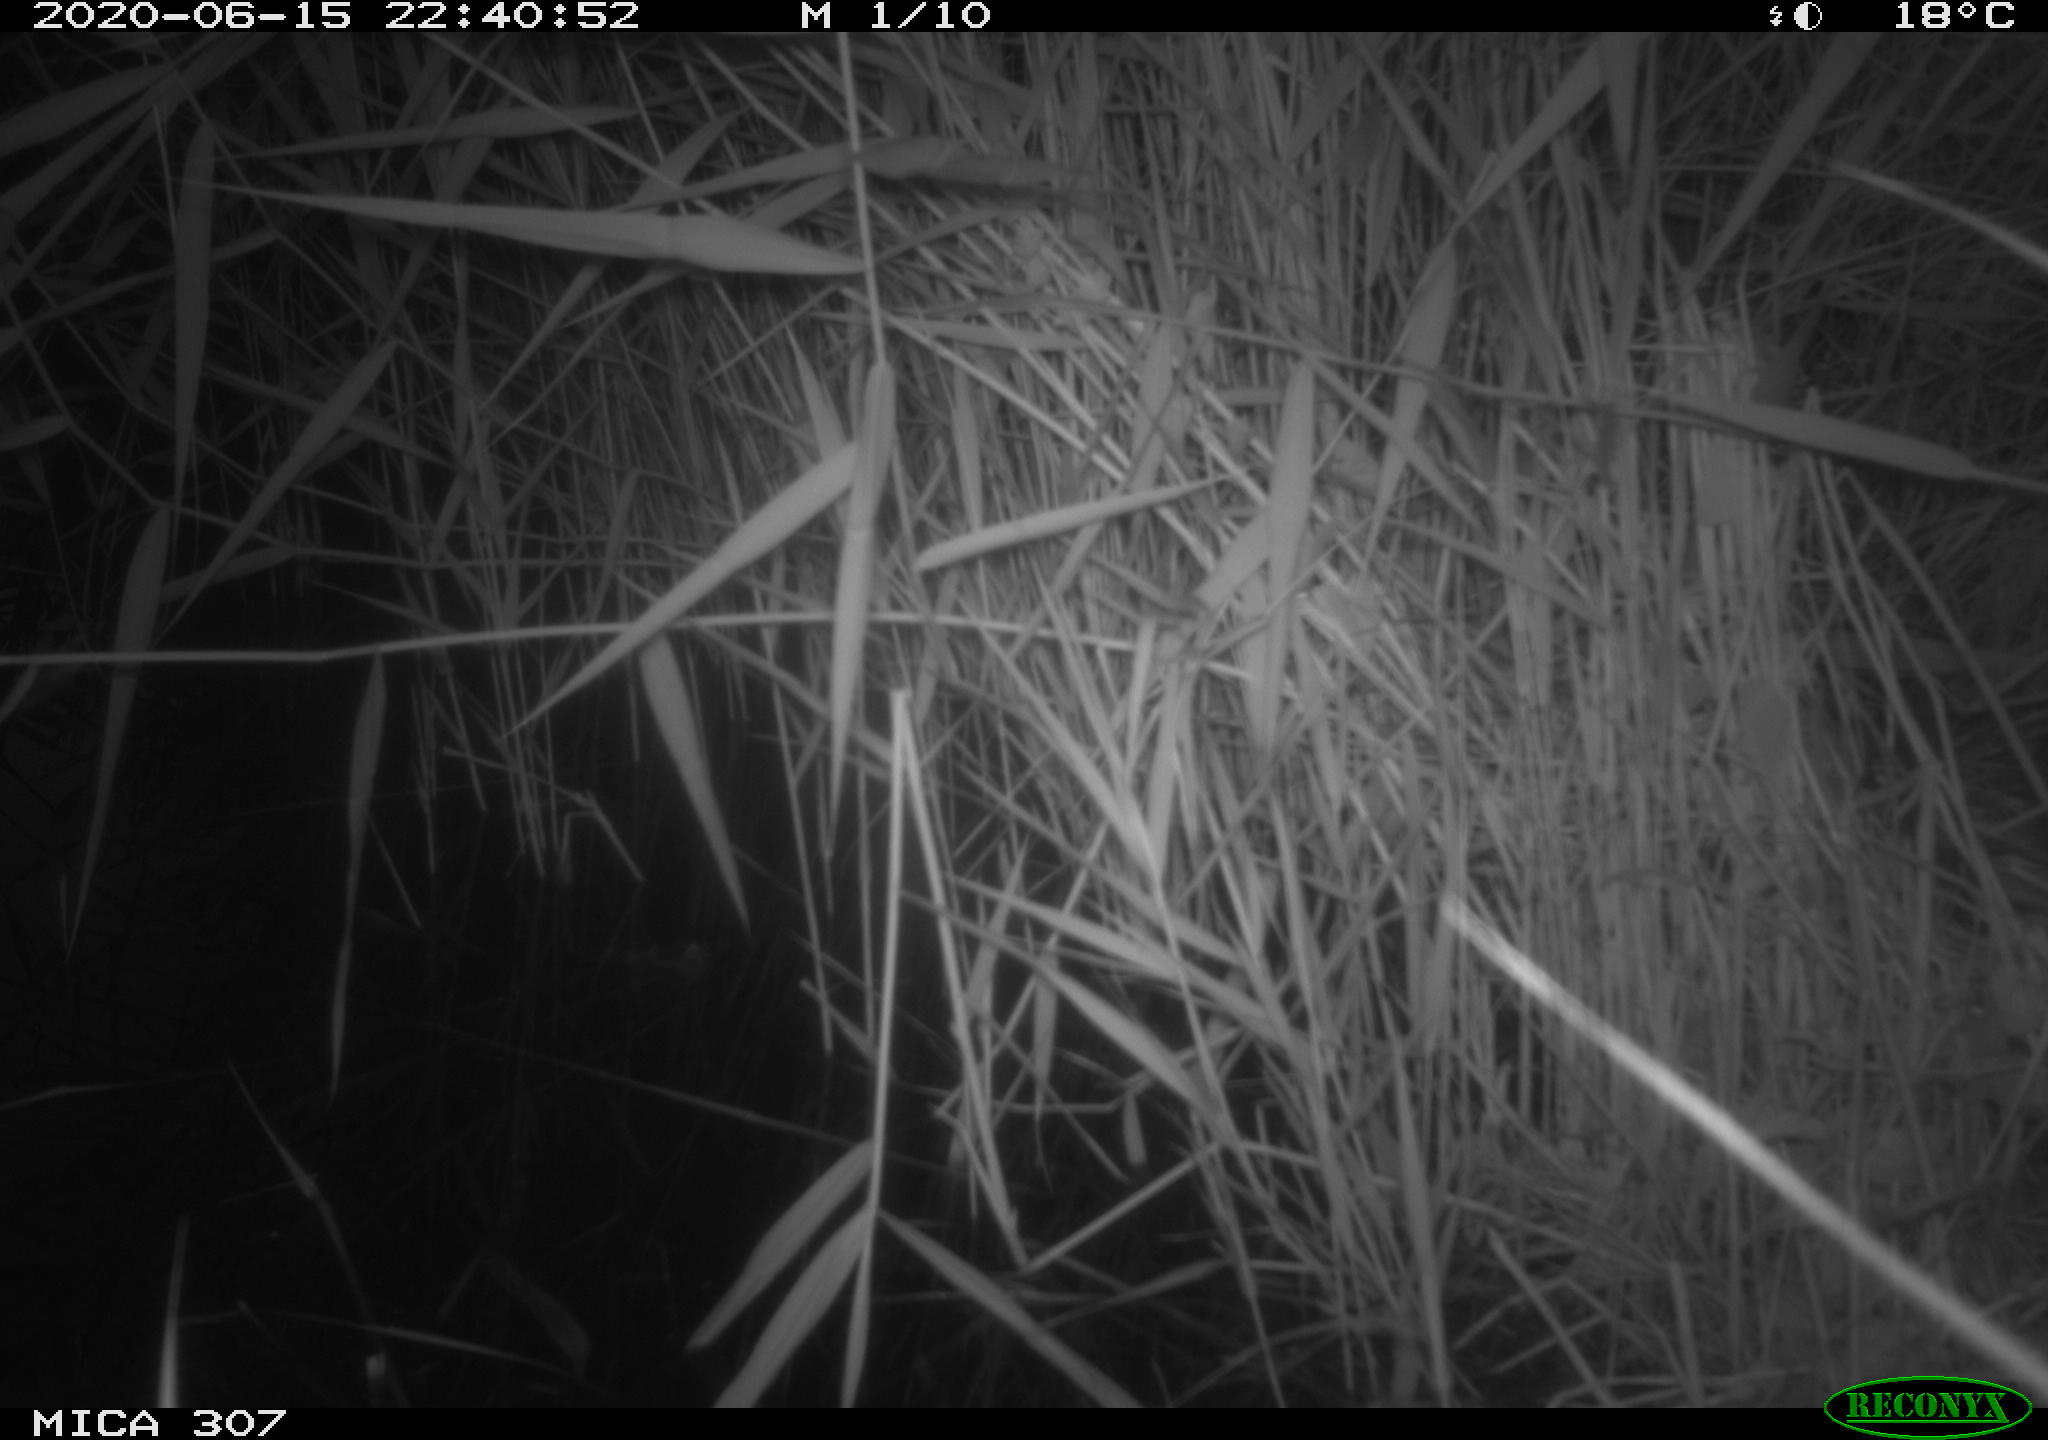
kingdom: Animalia
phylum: Chordata
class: Mammalia
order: Rodentia
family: Muridae
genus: Rattus
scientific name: Rattus norvegicus
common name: Brown rat
